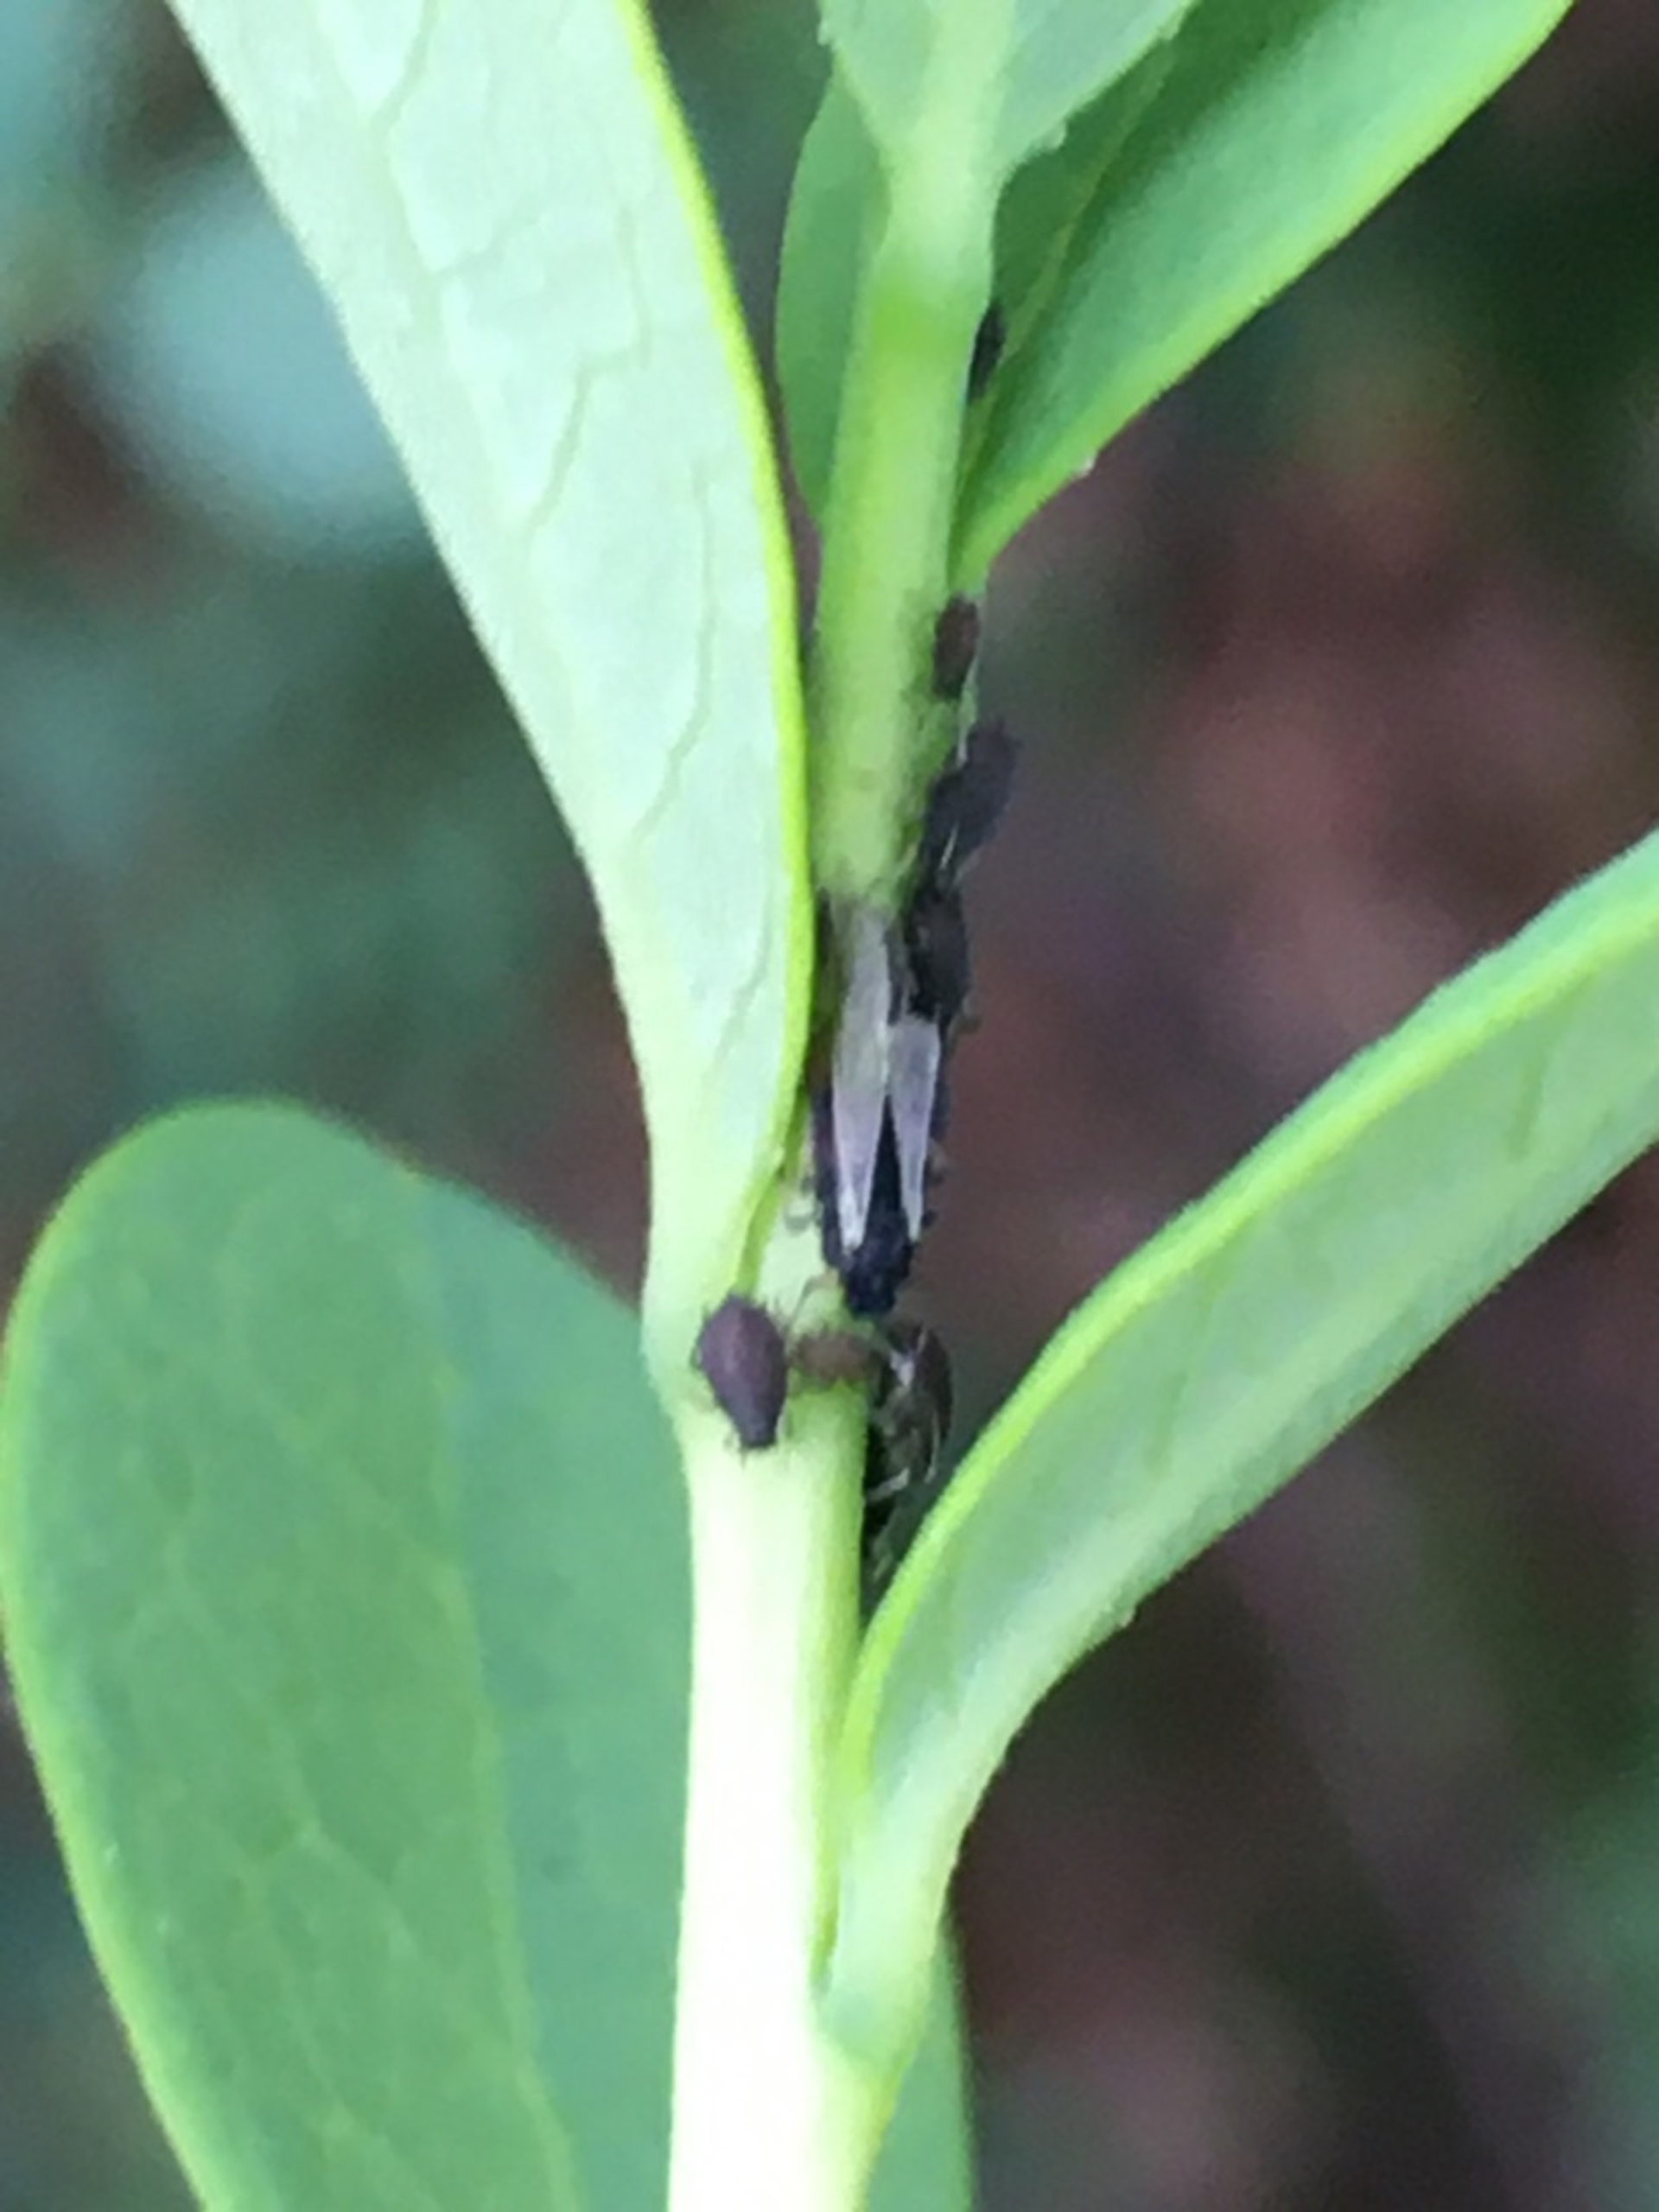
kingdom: Animalia
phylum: Arthropoda
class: Insecta
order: Hemiptera
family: Aphididae
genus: Aphis
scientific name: Aphis vaccinii
